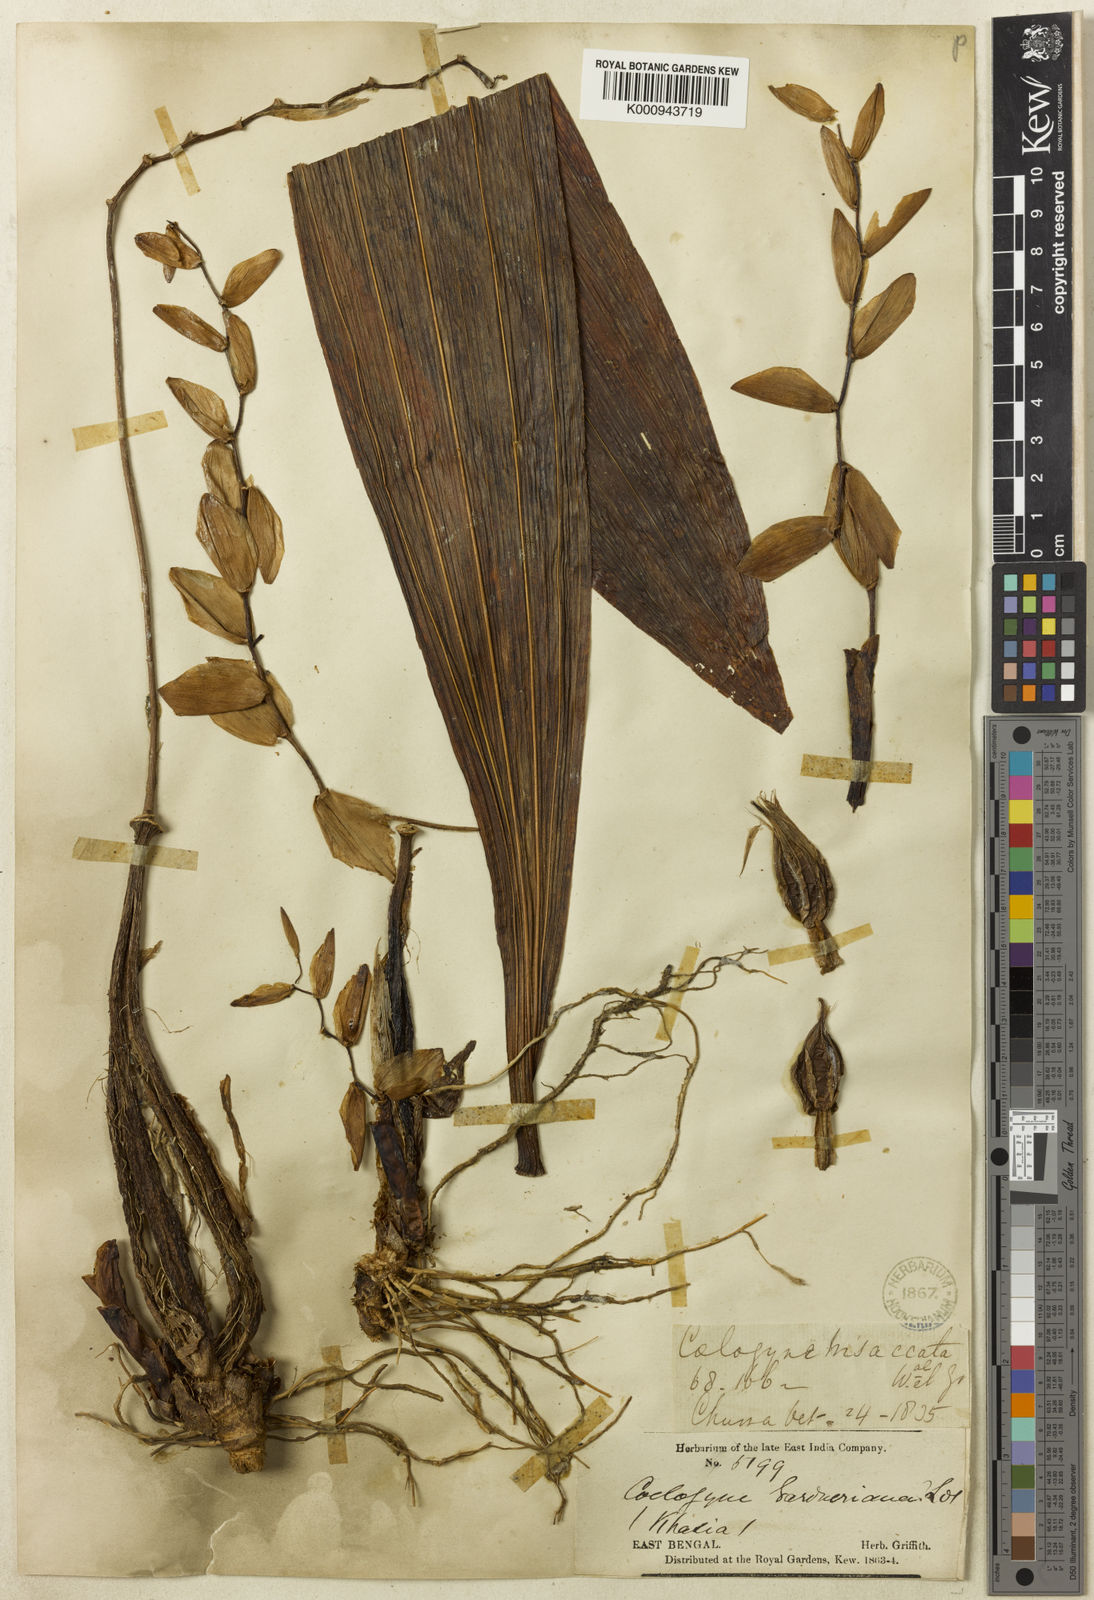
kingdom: Plantae
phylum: Tracheophyta
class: Liliopsida
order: Asparagales
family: Orchidaceae
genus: Coelogyne
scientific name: Coelogyne gardneriana
